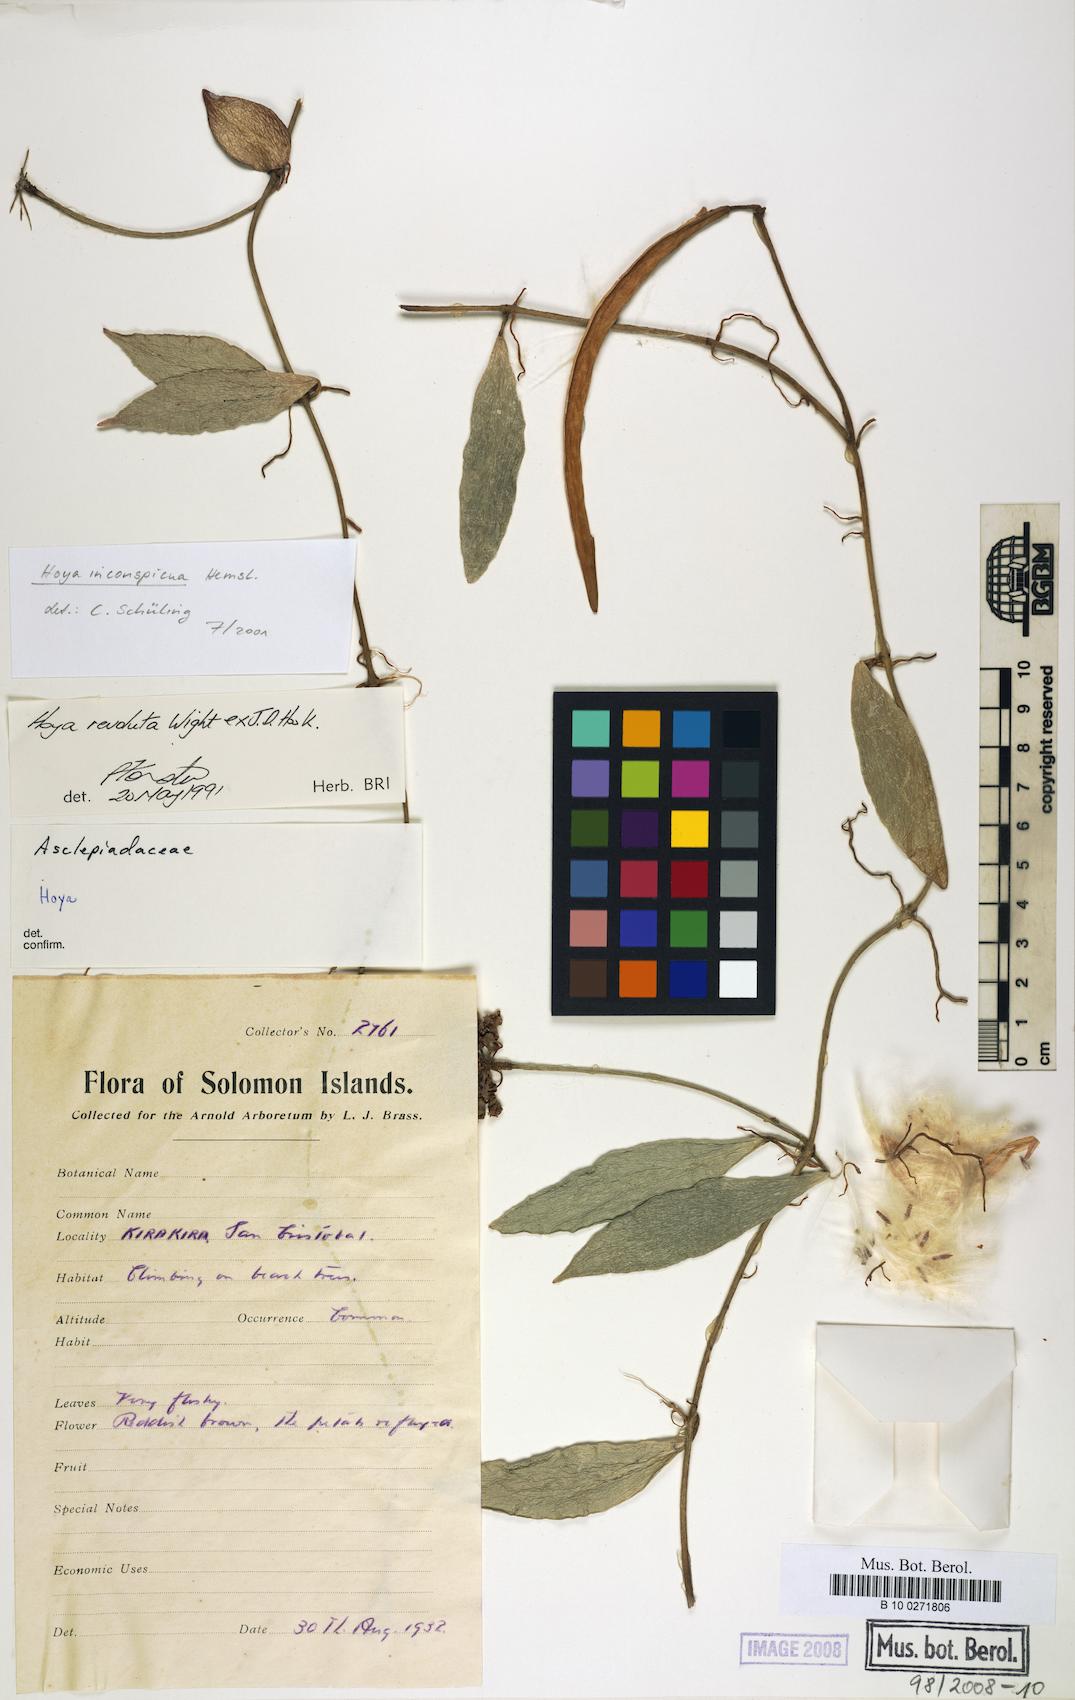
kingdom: Plantae
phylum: Tracheophyta
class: Magnoliopsida
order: Gentianales
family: Apocynaceae
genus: Hoya
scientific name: Hoya inconspicua
